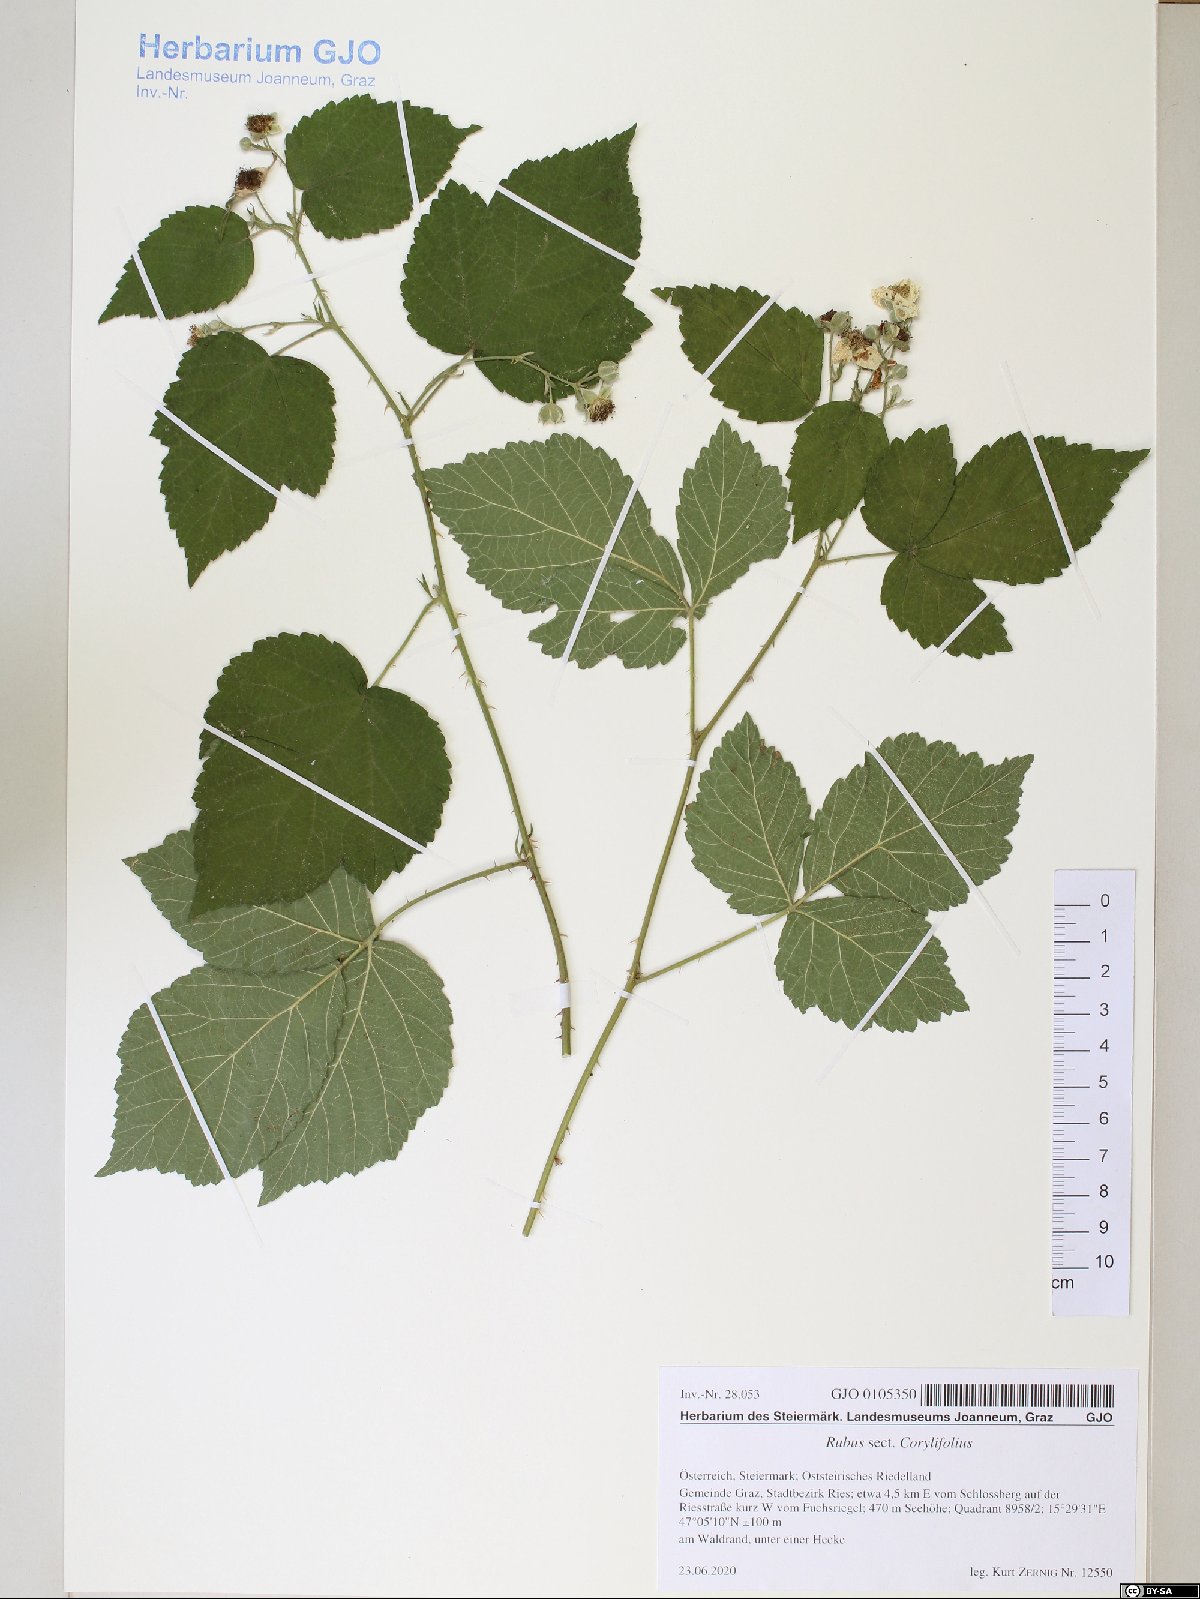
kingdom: Plantae
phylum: Tracheophyta
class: Magnoliopsida
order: Rosales
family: Rosaceae
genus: Rubus
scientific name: Rubus
